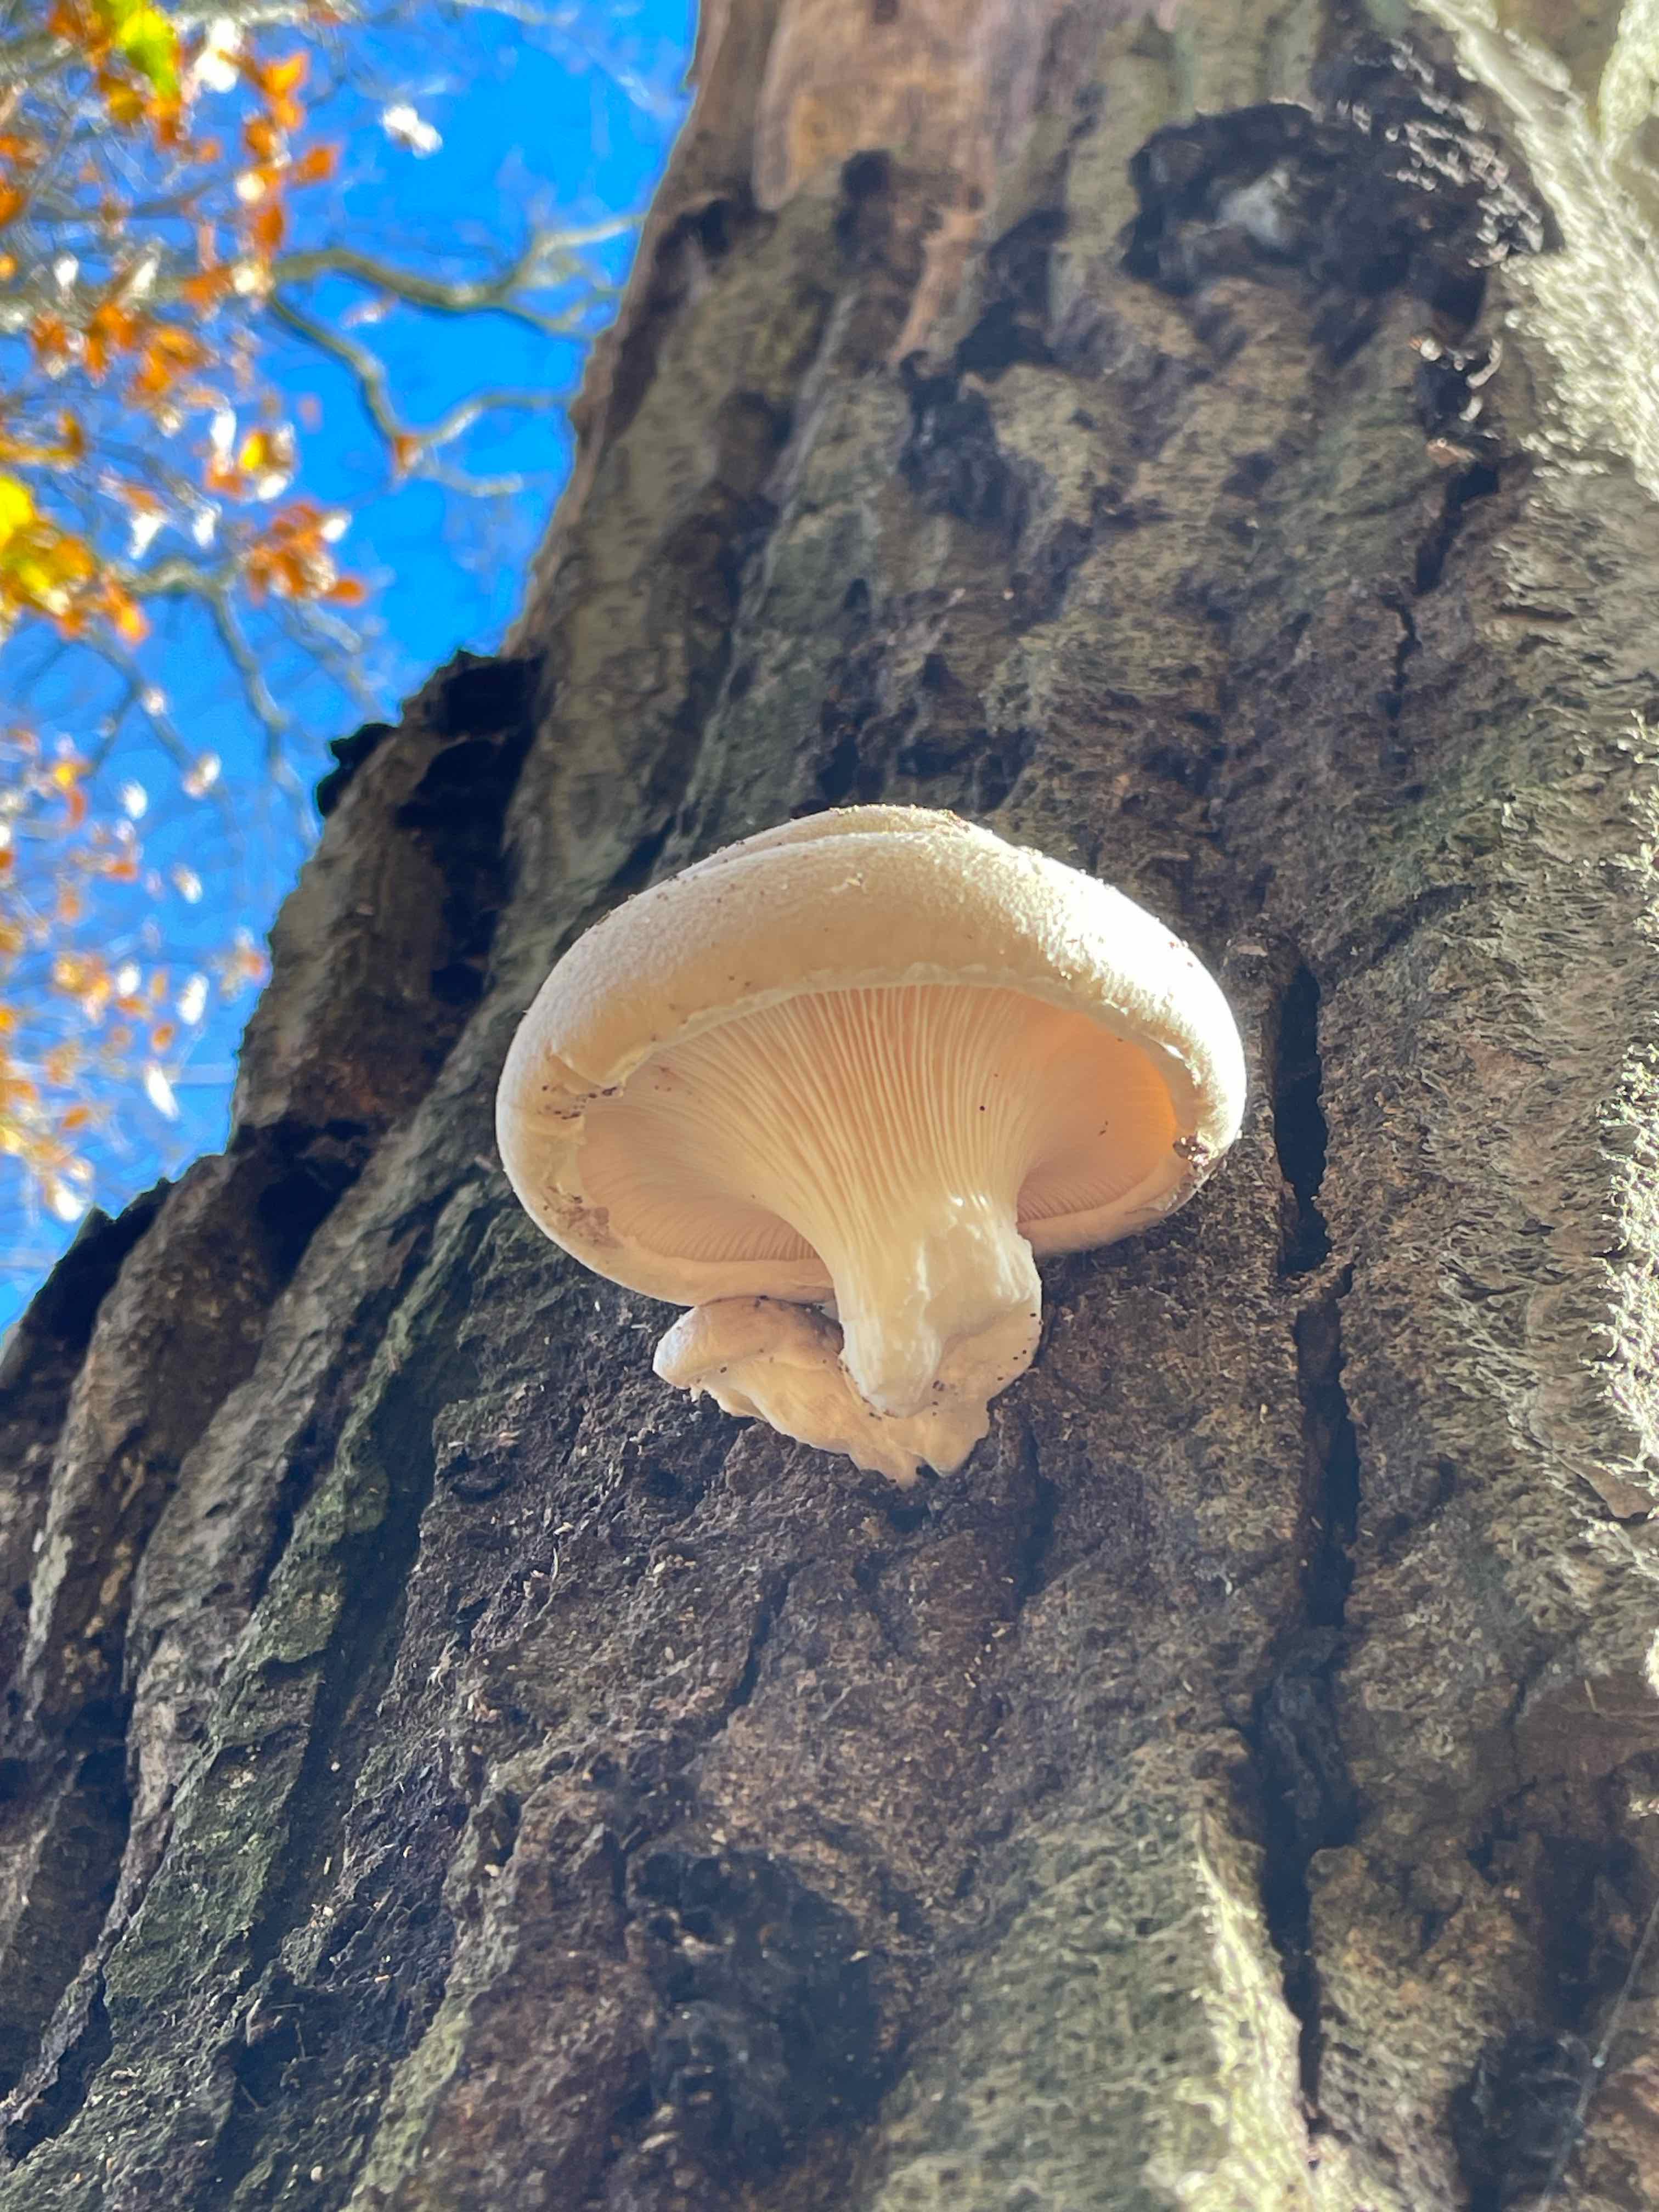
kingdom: Fungi
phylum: Basidiomycota
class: Agaricomycetes
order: Agaricales
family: Pleurotaceae
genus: Pleurotus
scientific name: Pleurotus dryinus
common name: korkagtig østershat
